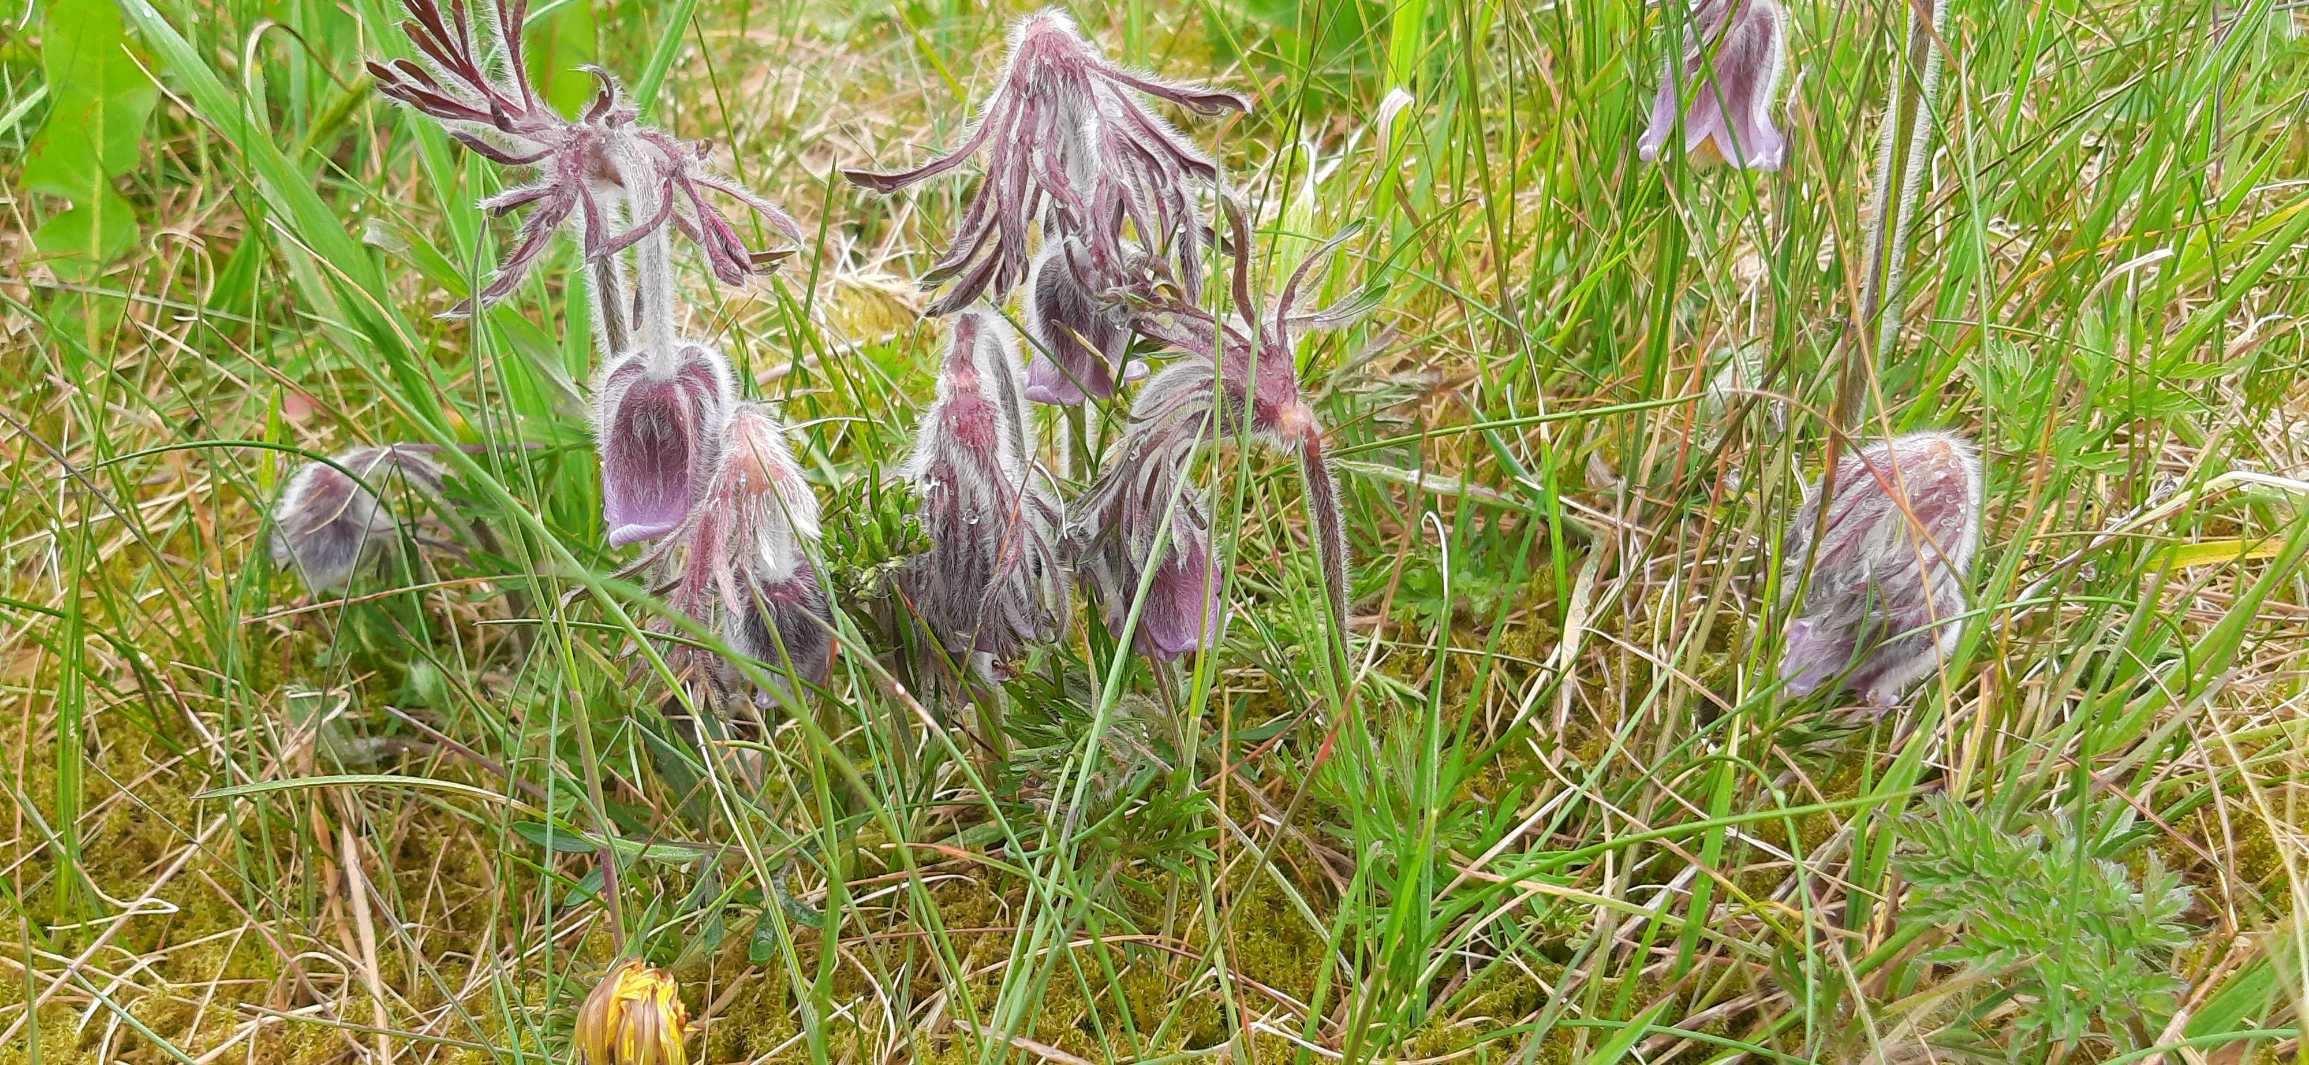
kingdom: Plantae
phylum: Tracheophyta
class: Magnoliopsida
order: Ranunculales
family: Ranunculaceae
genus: Pulsatilla
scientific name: Pulsatilla pratensis
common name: Nikkende kobjælde
